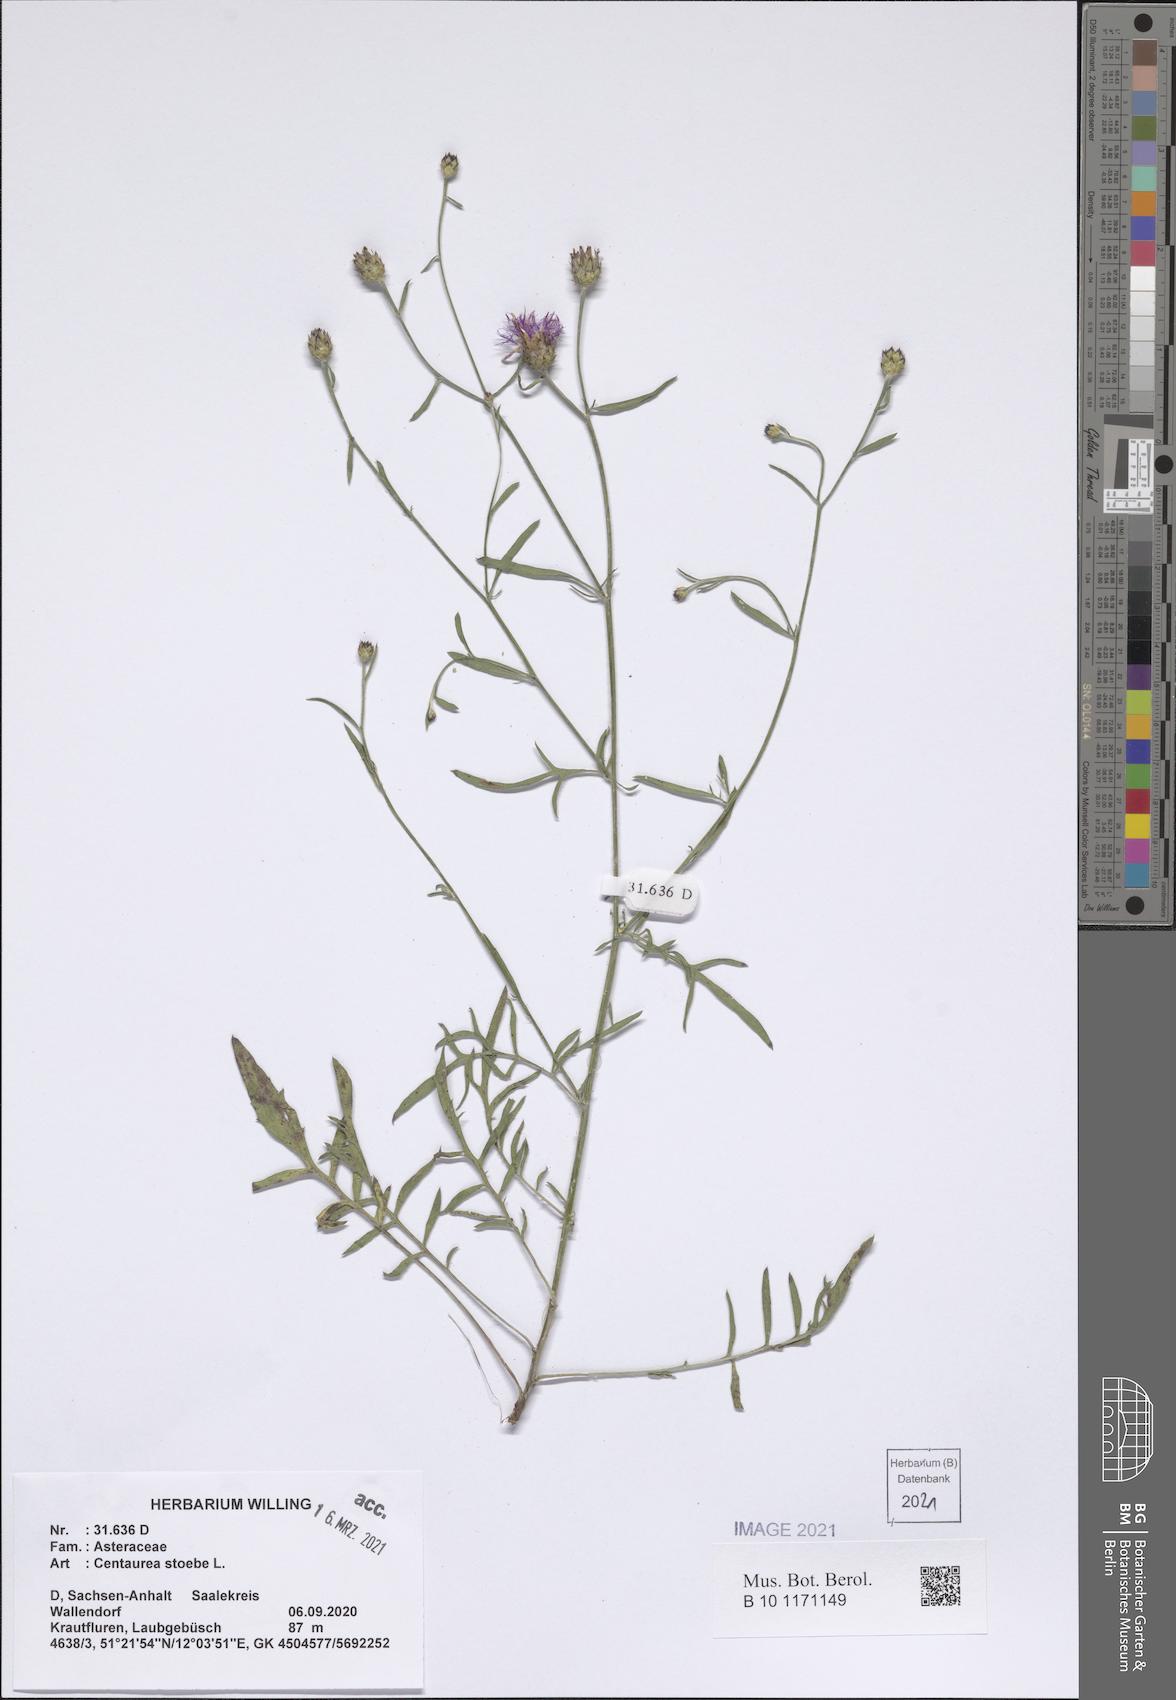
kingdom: Plantae
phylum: Tracheophyta
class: Magnoliopsida
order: Asterales
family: Asteraceae
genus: Centaurea
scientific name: Centaurea stoebe
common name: Spotted knapweed
